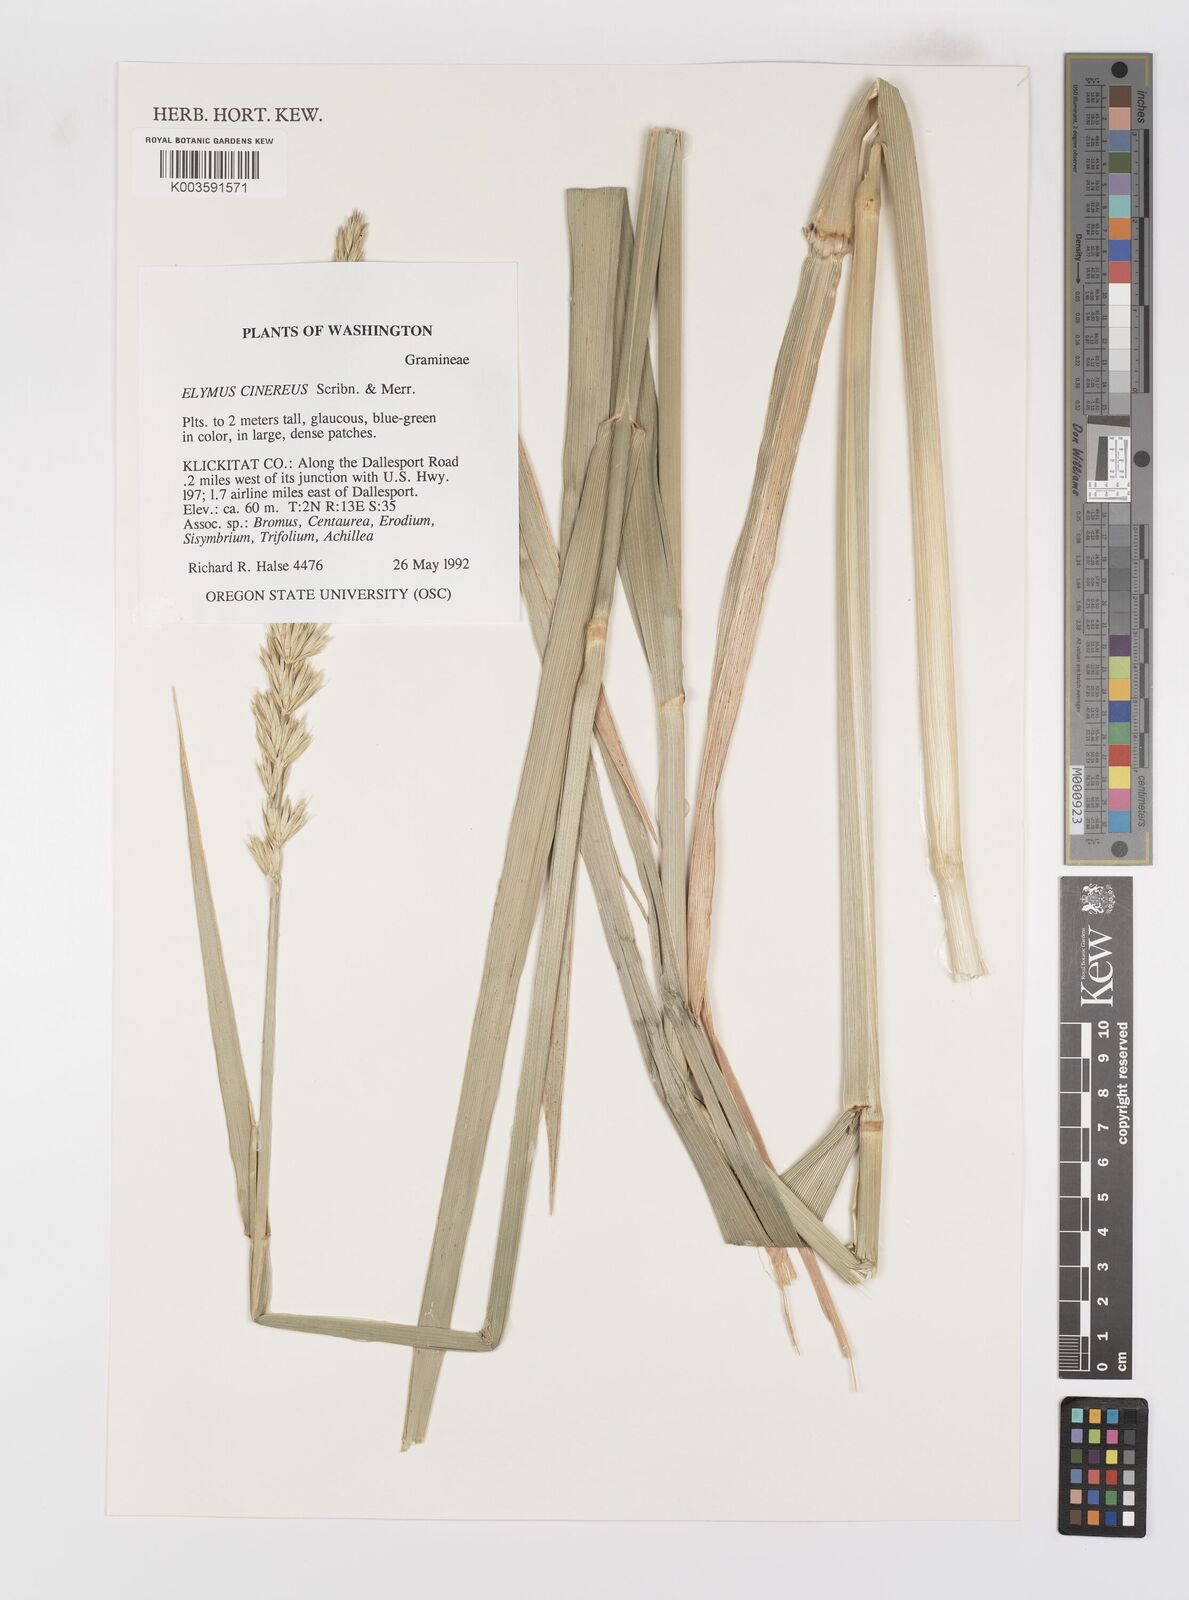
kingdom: Plantae
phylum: Tracheophyta
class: Liliopsida
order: Poales
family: Poaceae
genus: Leymus
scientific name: Leymus cinereus
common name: Basin wild rye
